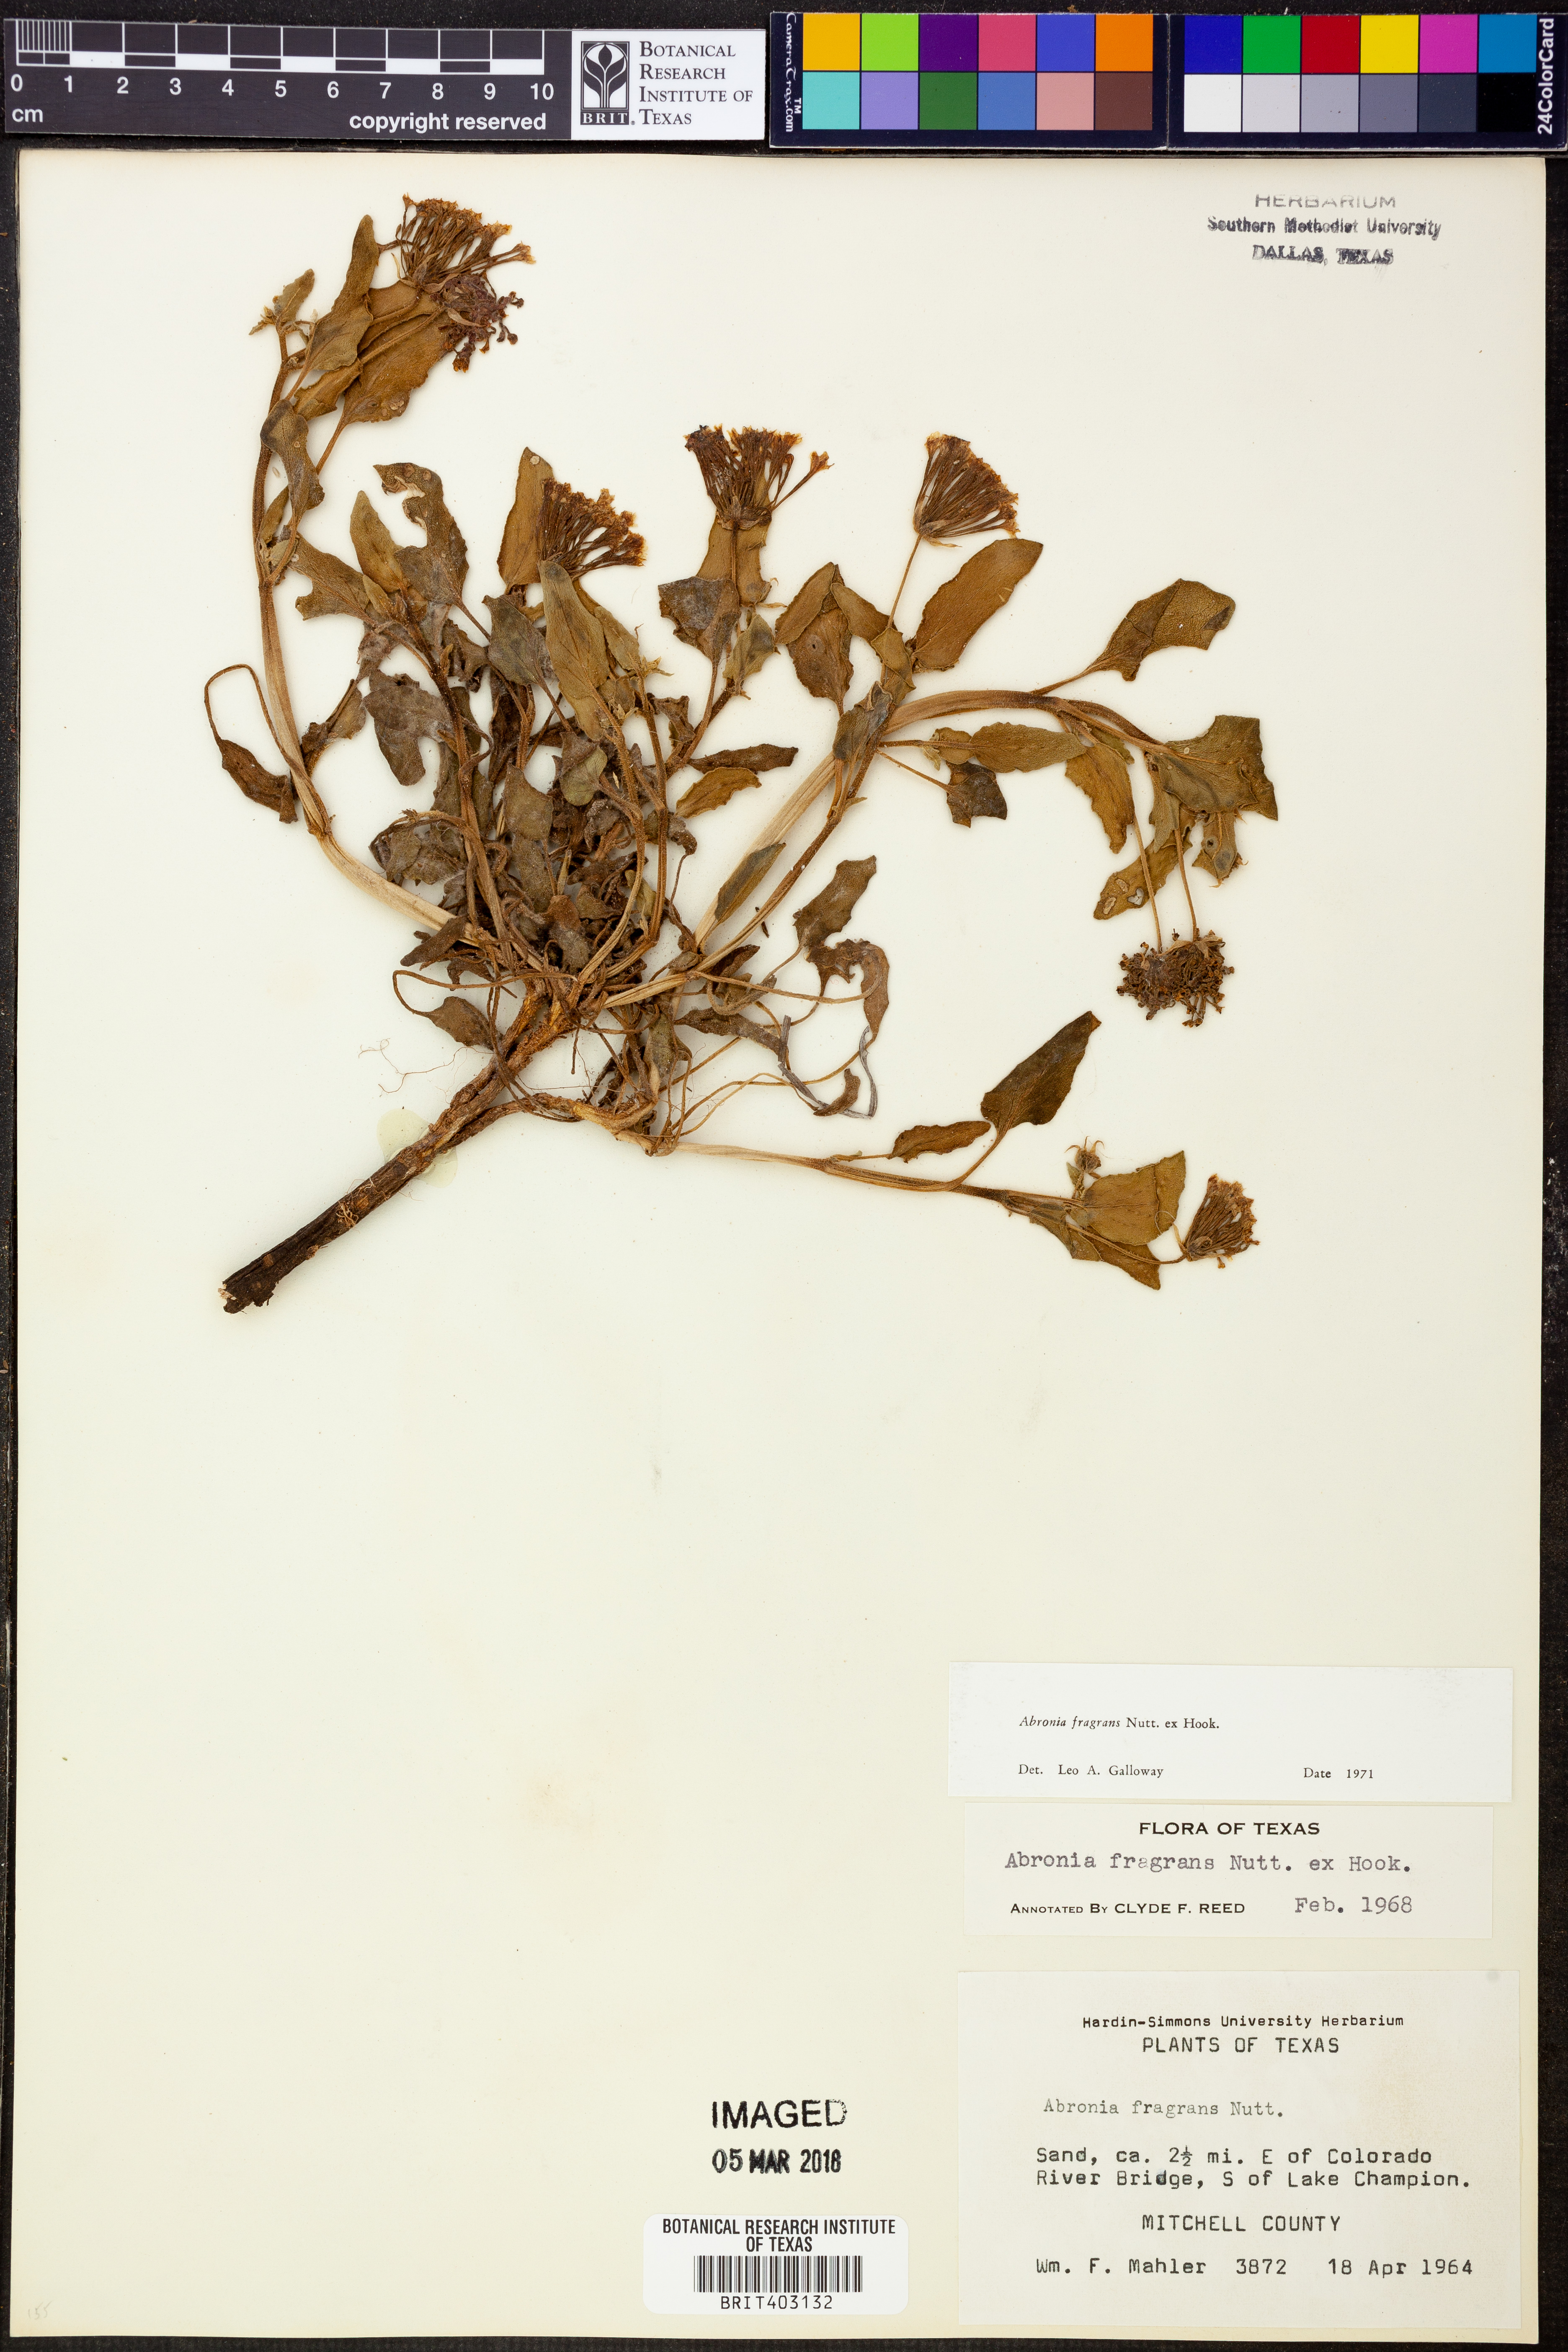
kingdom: Plantae
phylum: Tracheophyta
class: Magnoliopsida
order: Caryophyllales
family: Nyctaginaceae
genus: Abronia
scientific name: Abronia fragrans
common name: Fragrant sand-verbena
